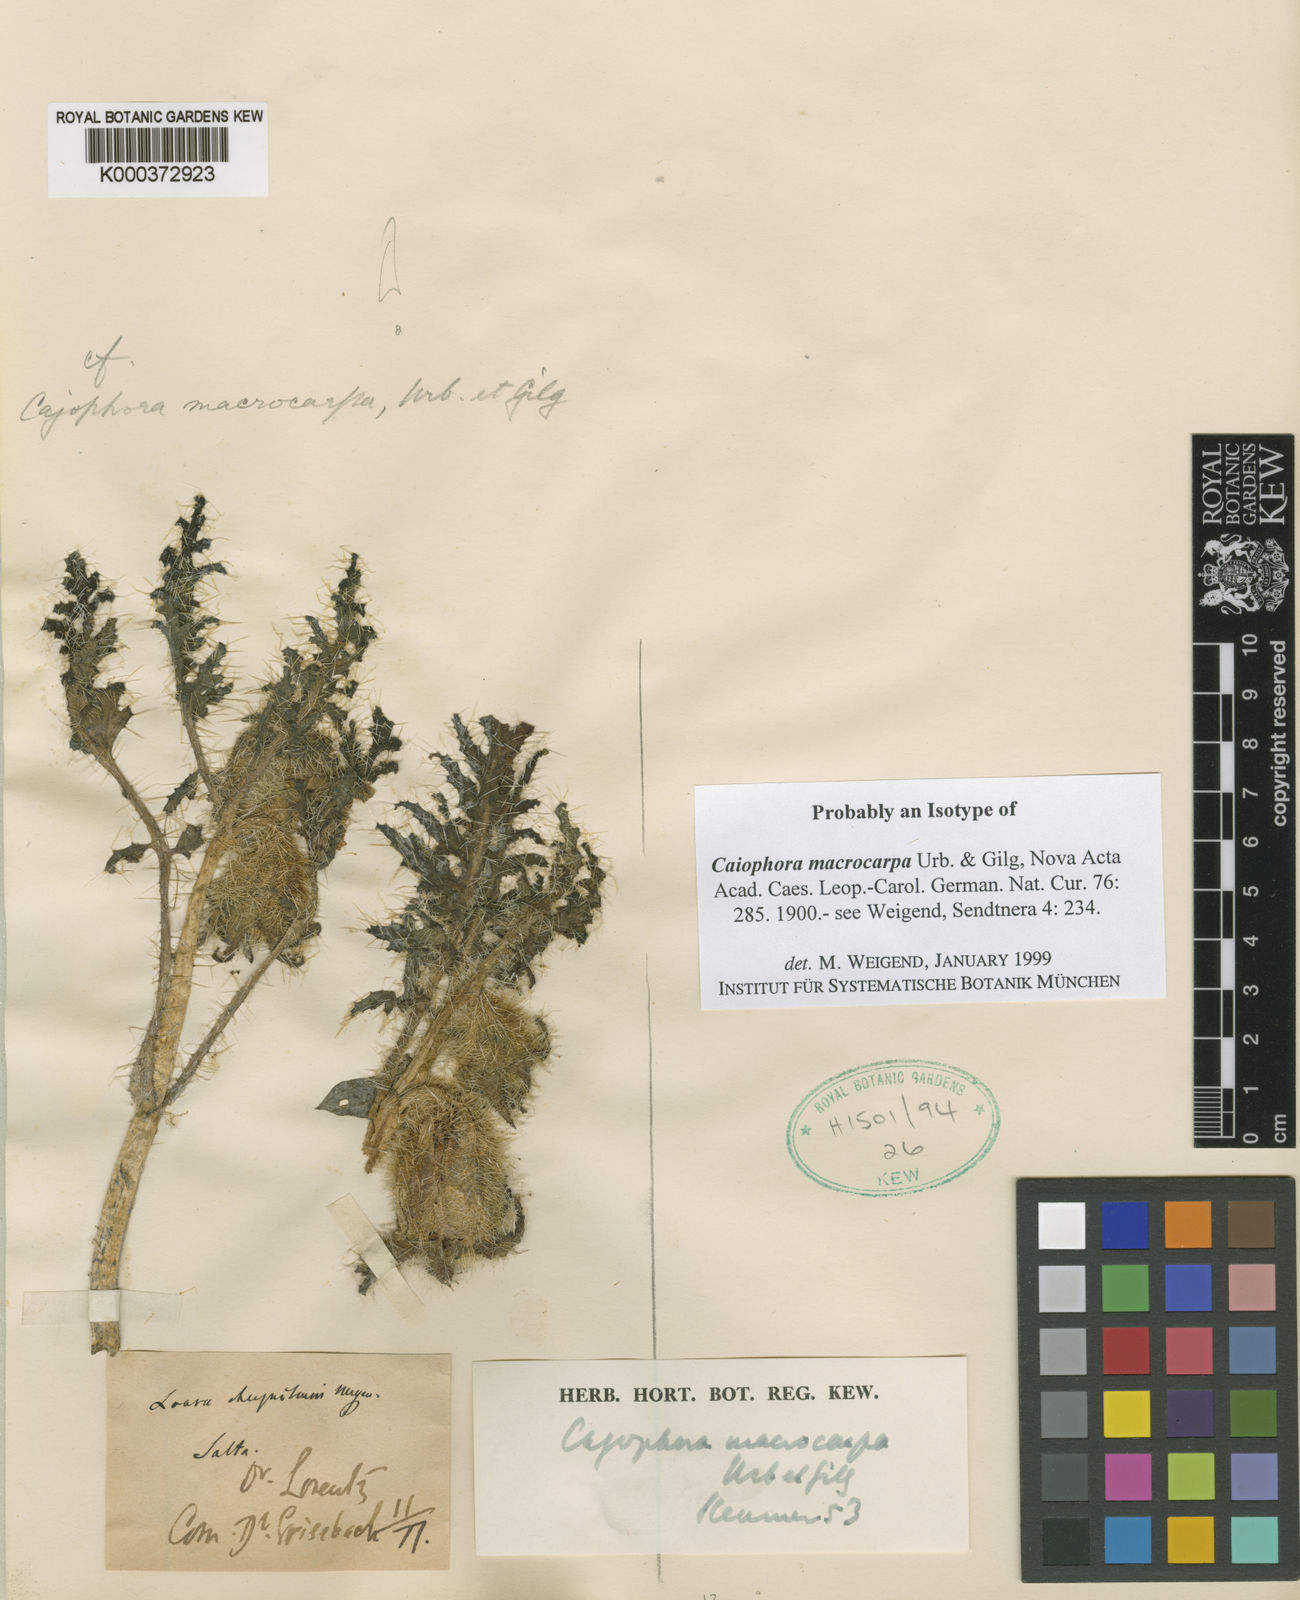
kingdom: Plantae
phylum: Tracheophyta
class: Magnoliopsida
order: Cornales
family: Loasaceae
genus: Caiophora
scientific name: Caiophora chuquitensis
